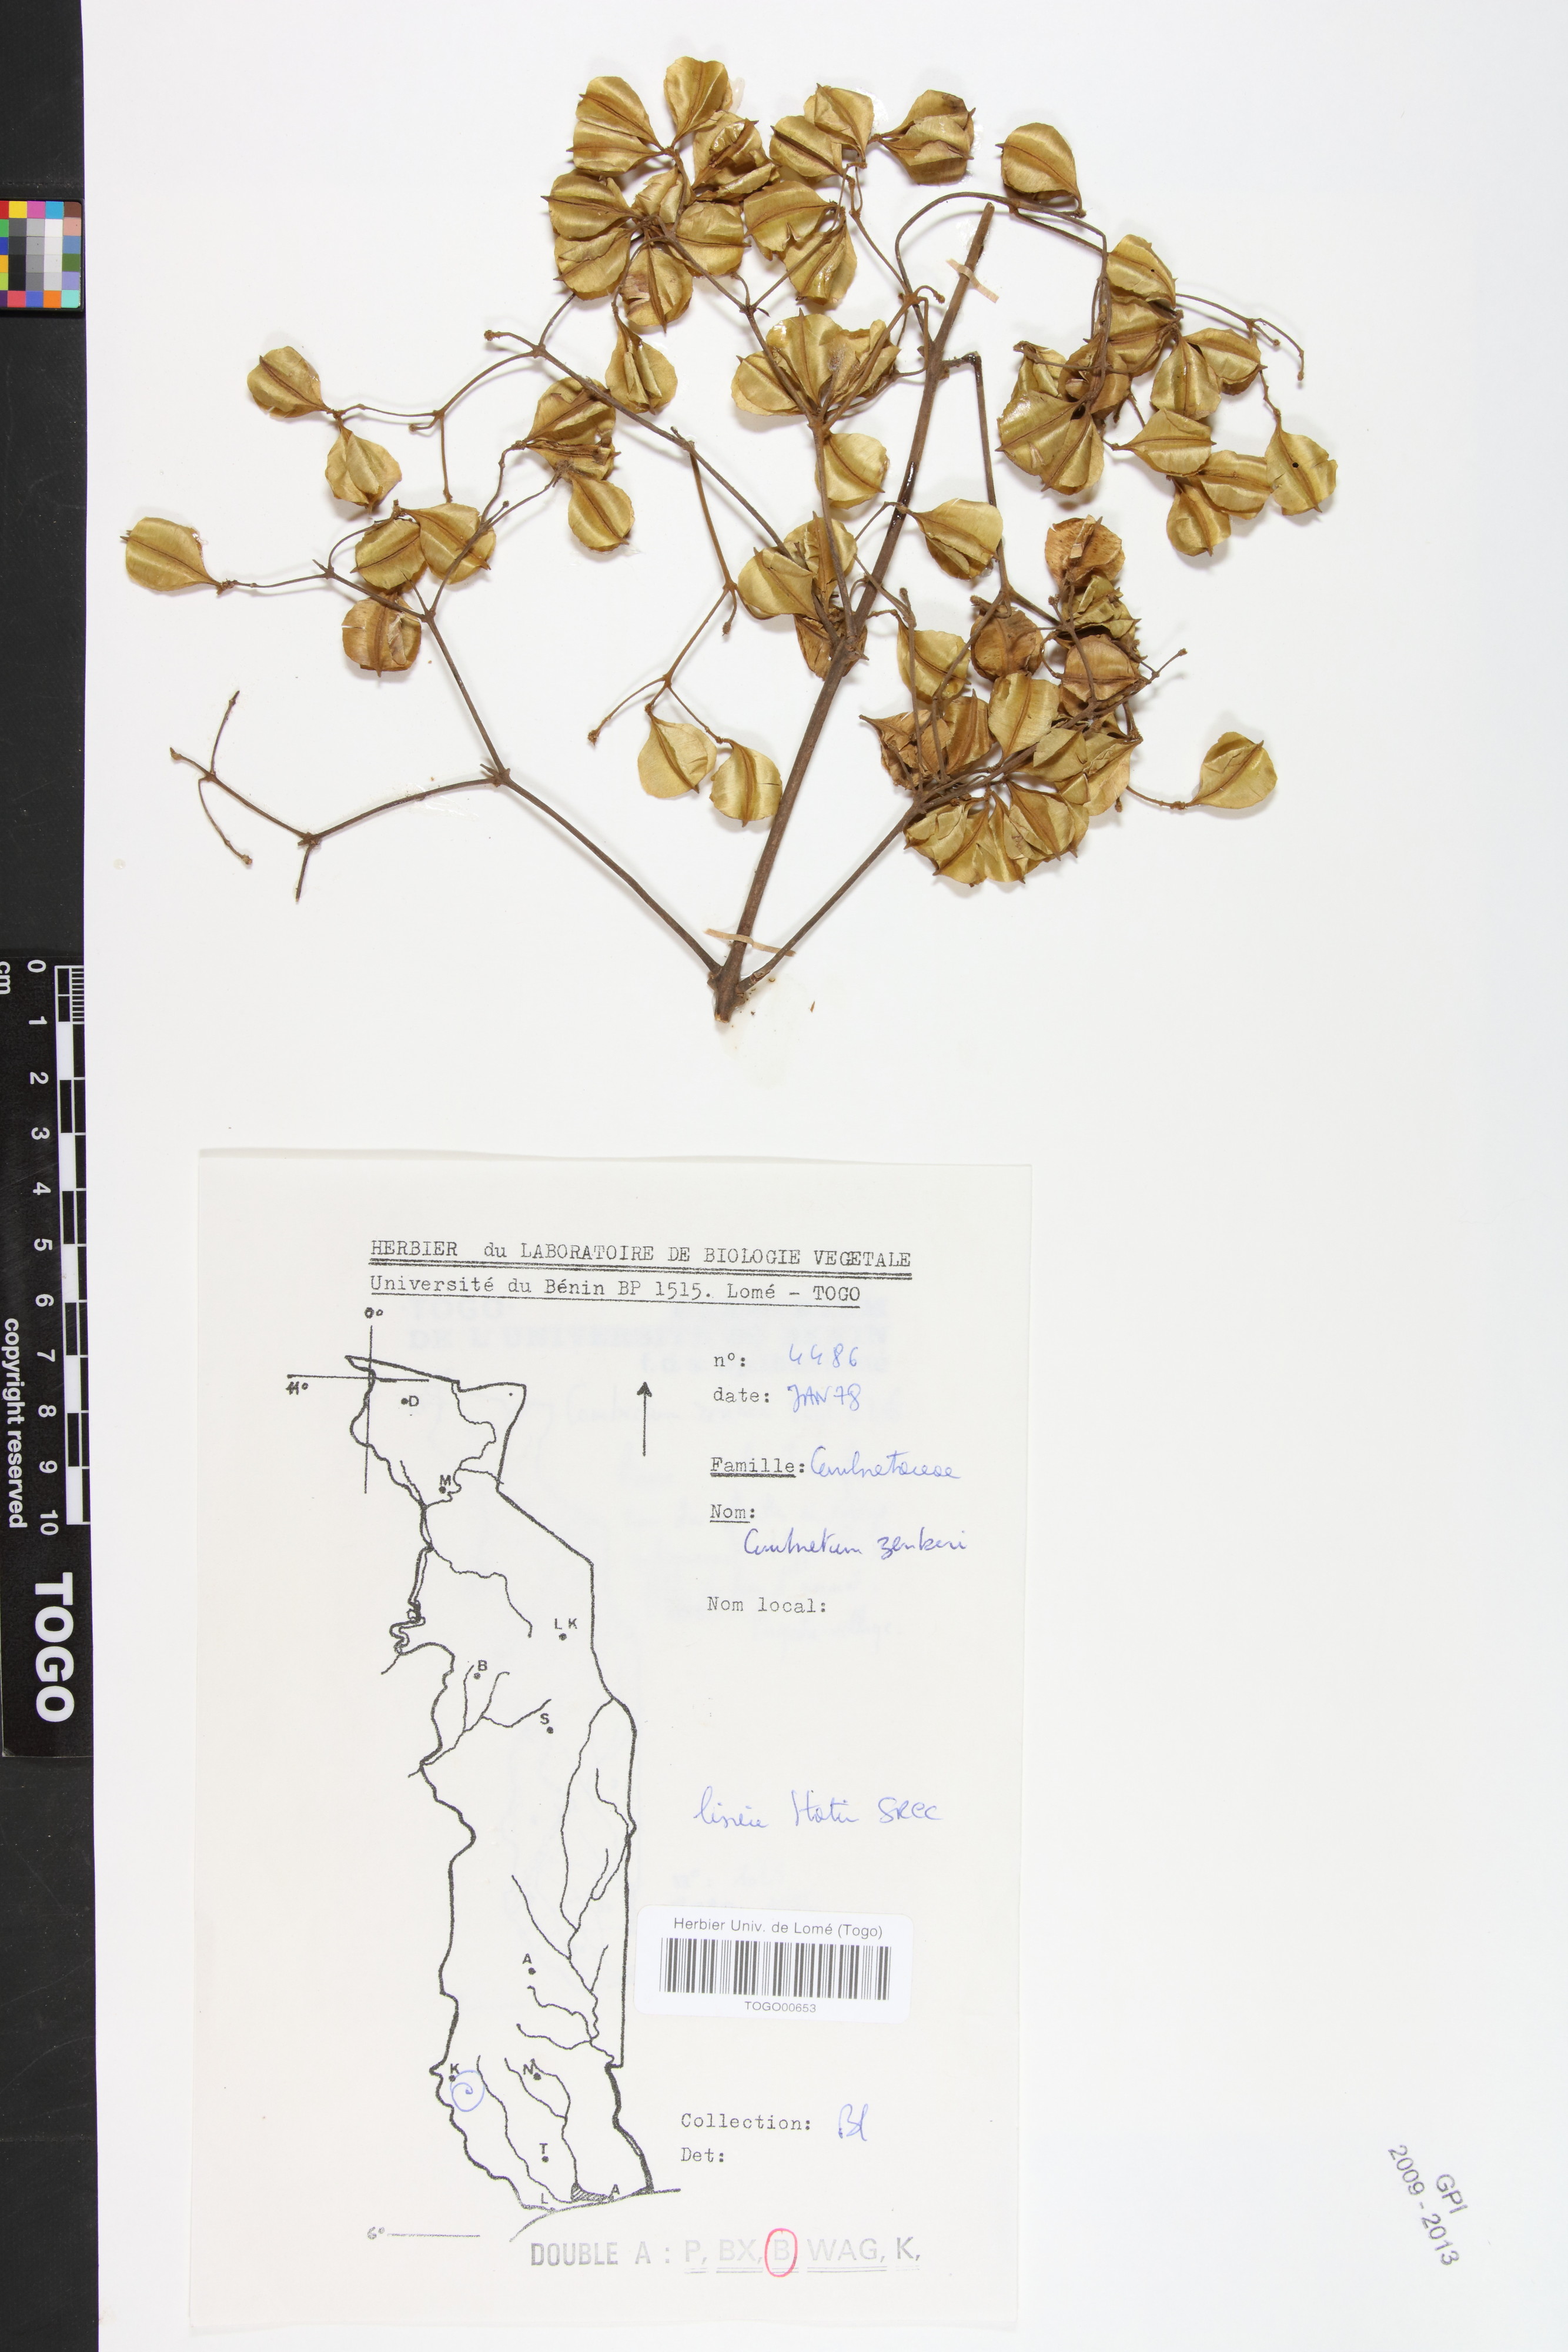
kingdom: Plantae
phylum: Tracheophyta
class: Magnoliopsida
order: Myrtales
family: Combretaceae
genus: Combretum
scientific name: Combretum zenkeri
